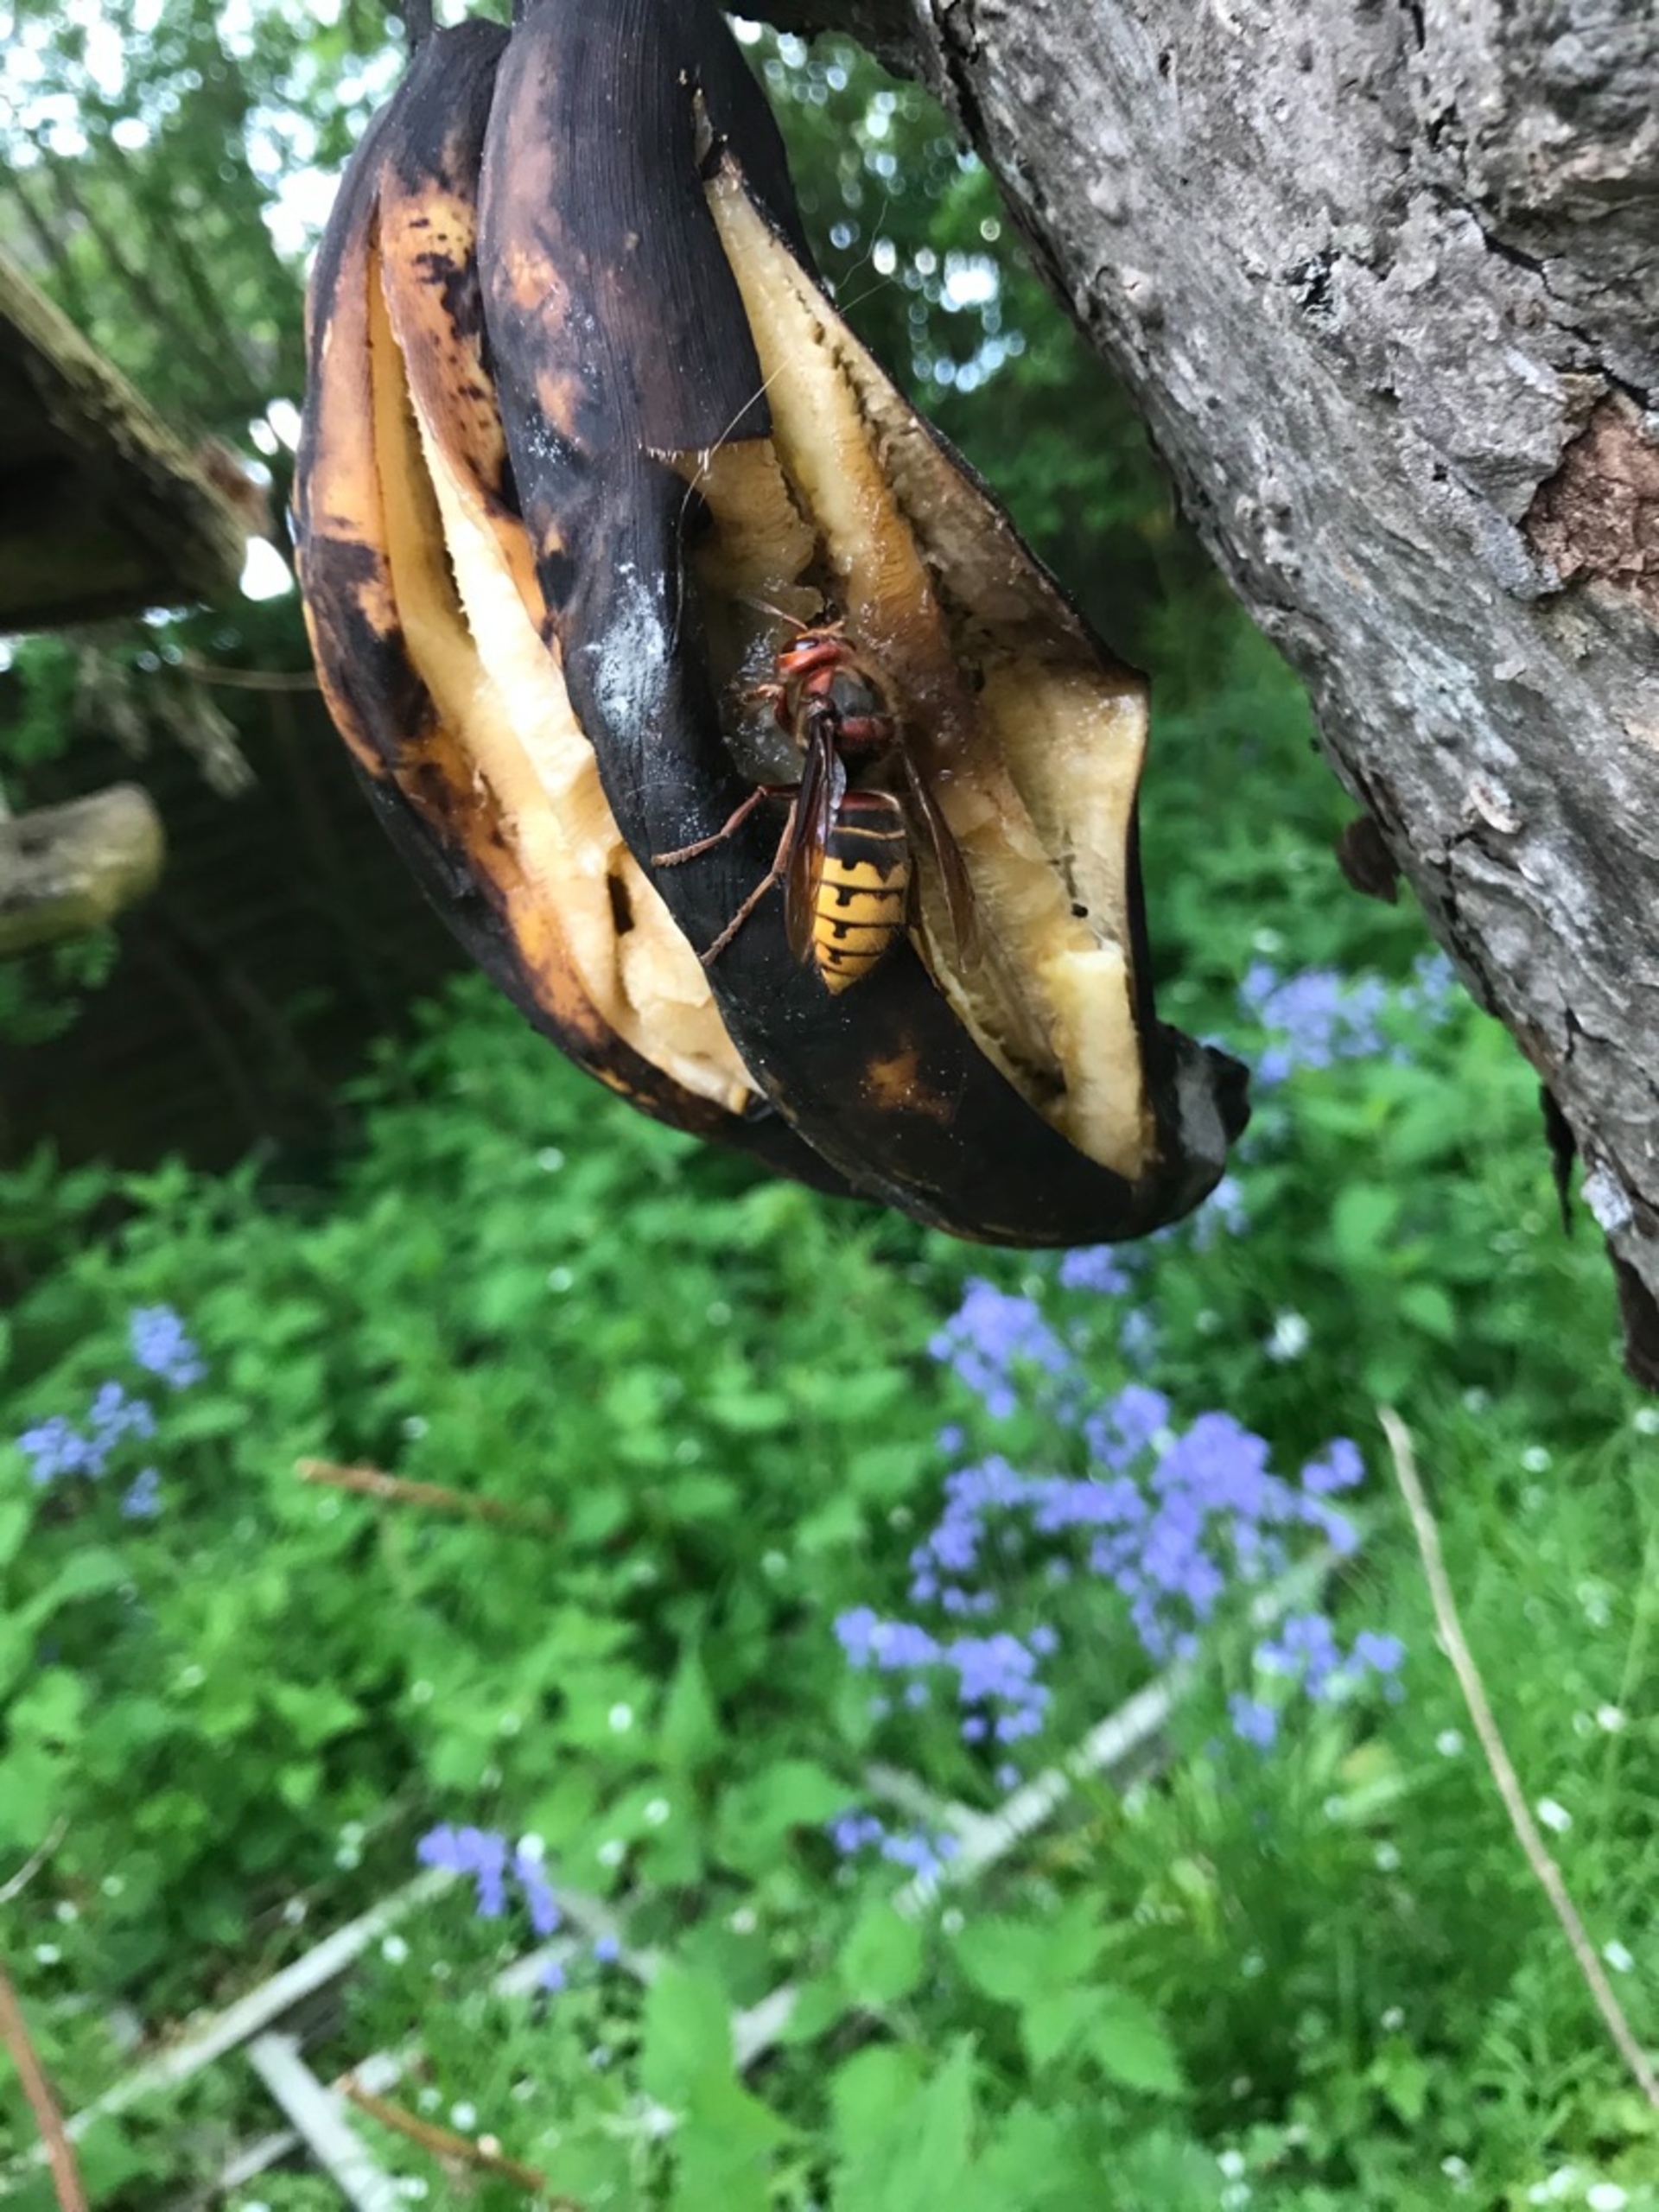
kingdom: Animalia
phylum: Arthropoda
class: Insecta
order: Hymenoptera
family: Vespidae
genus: Vespa
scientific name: Vespa crabro
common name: Stor gedehams
